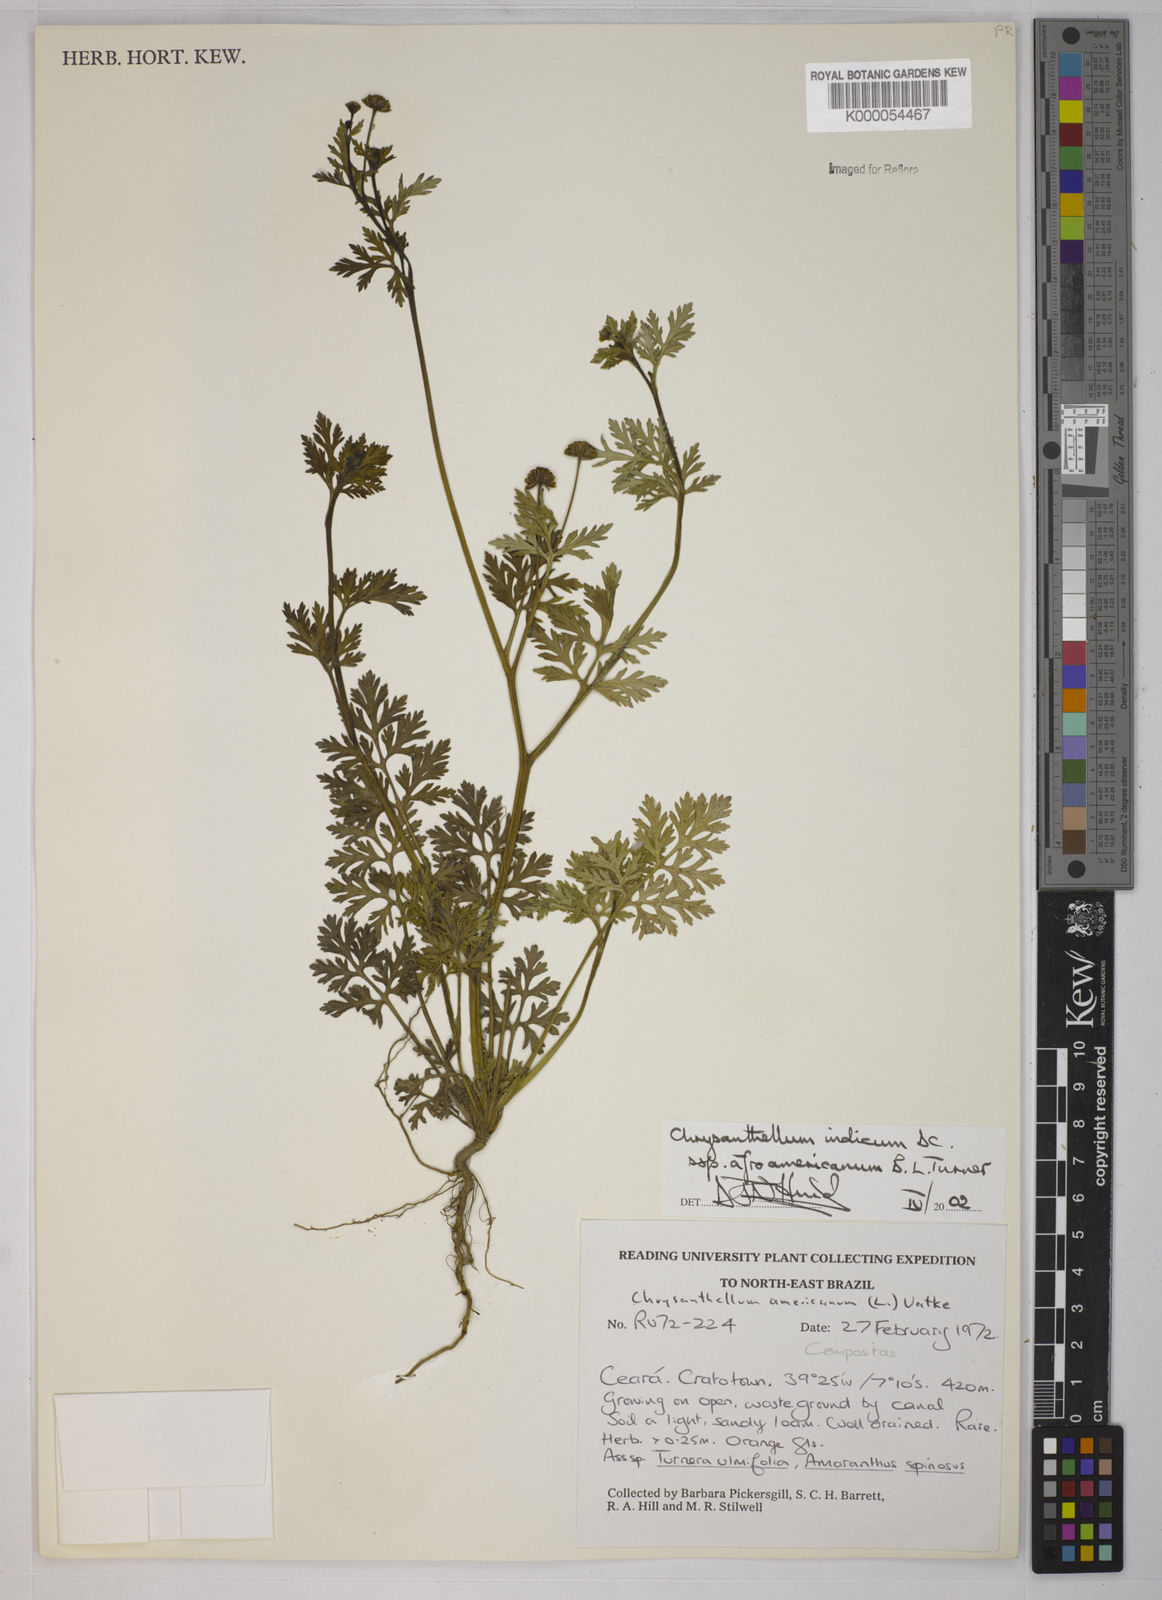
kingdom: Plantae
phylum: Tracheophyta
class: Magnoliopsida
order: Asterales
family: Asteraceae
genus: Chrysanthellum
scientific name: Chrysanthellum indicum
